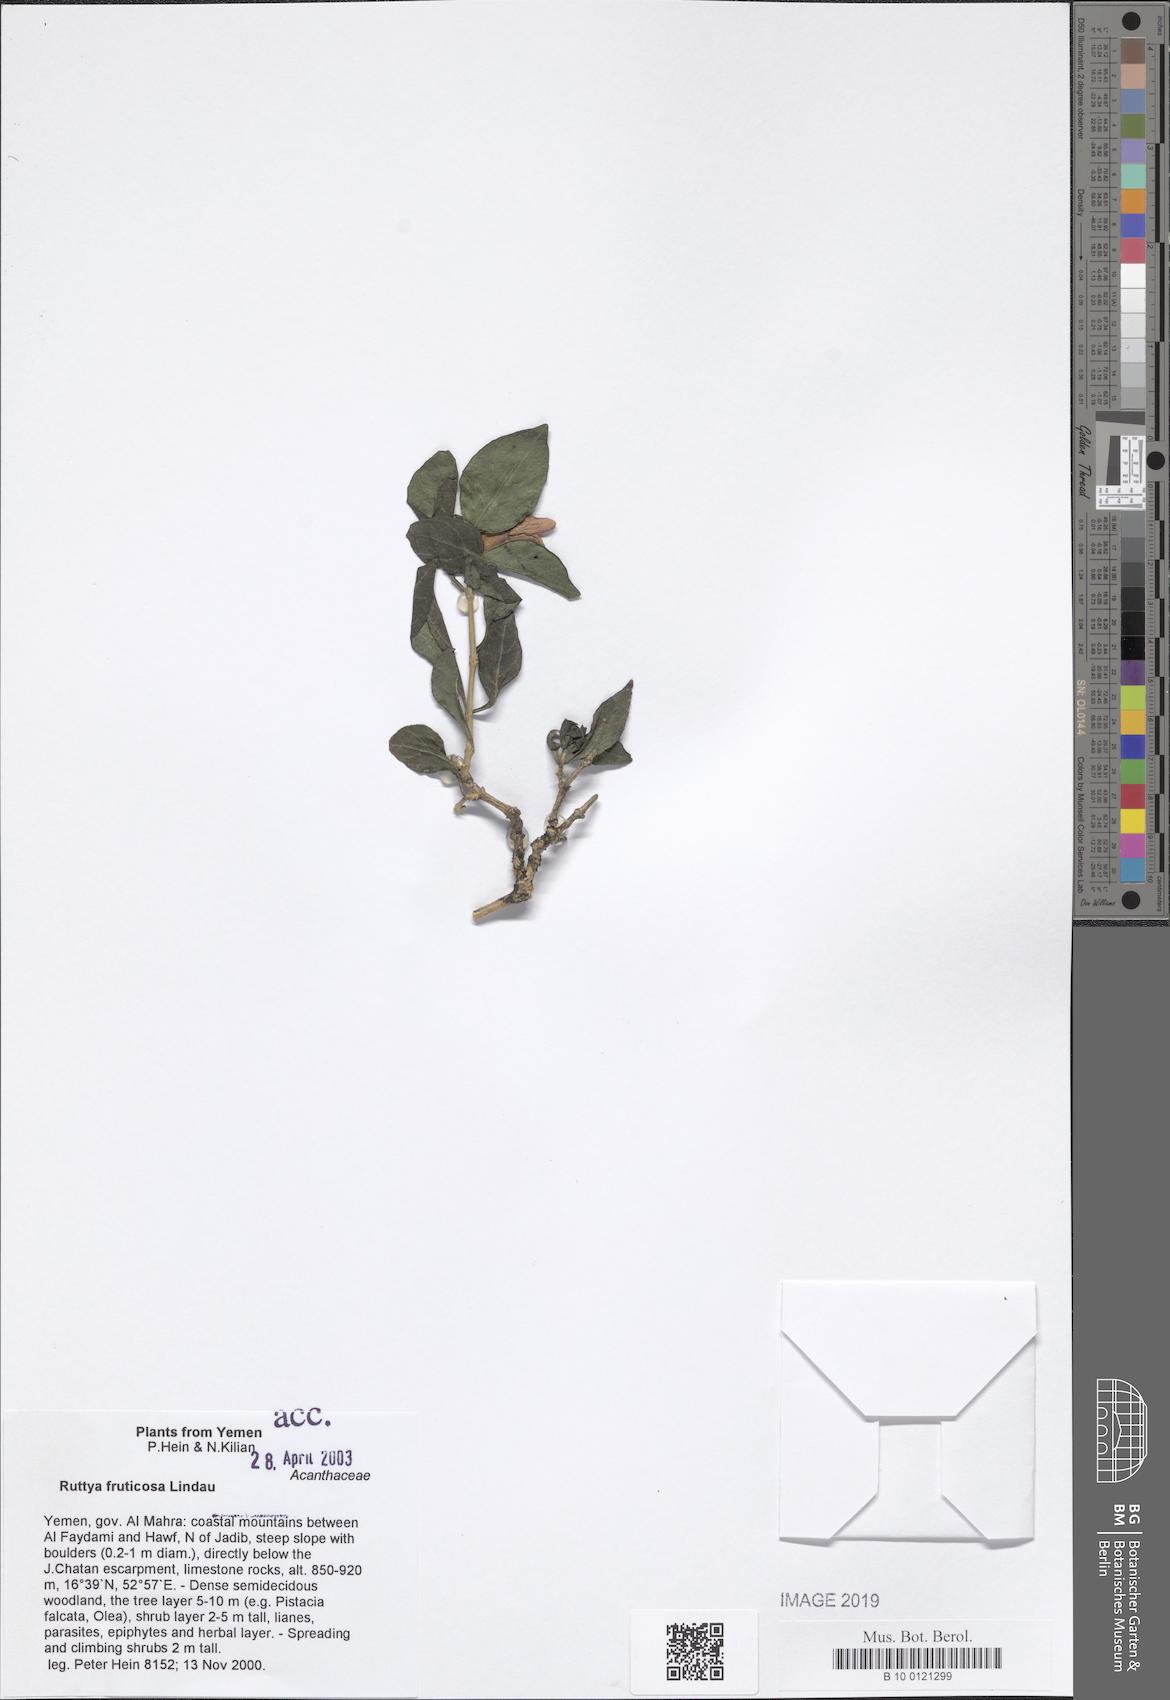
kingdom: Plantae
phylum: Tracheophyta
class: Magnoliopsida
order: Lamiales
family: Acanthaceae
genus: Ruttya
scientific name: Ruttya fruticosa
